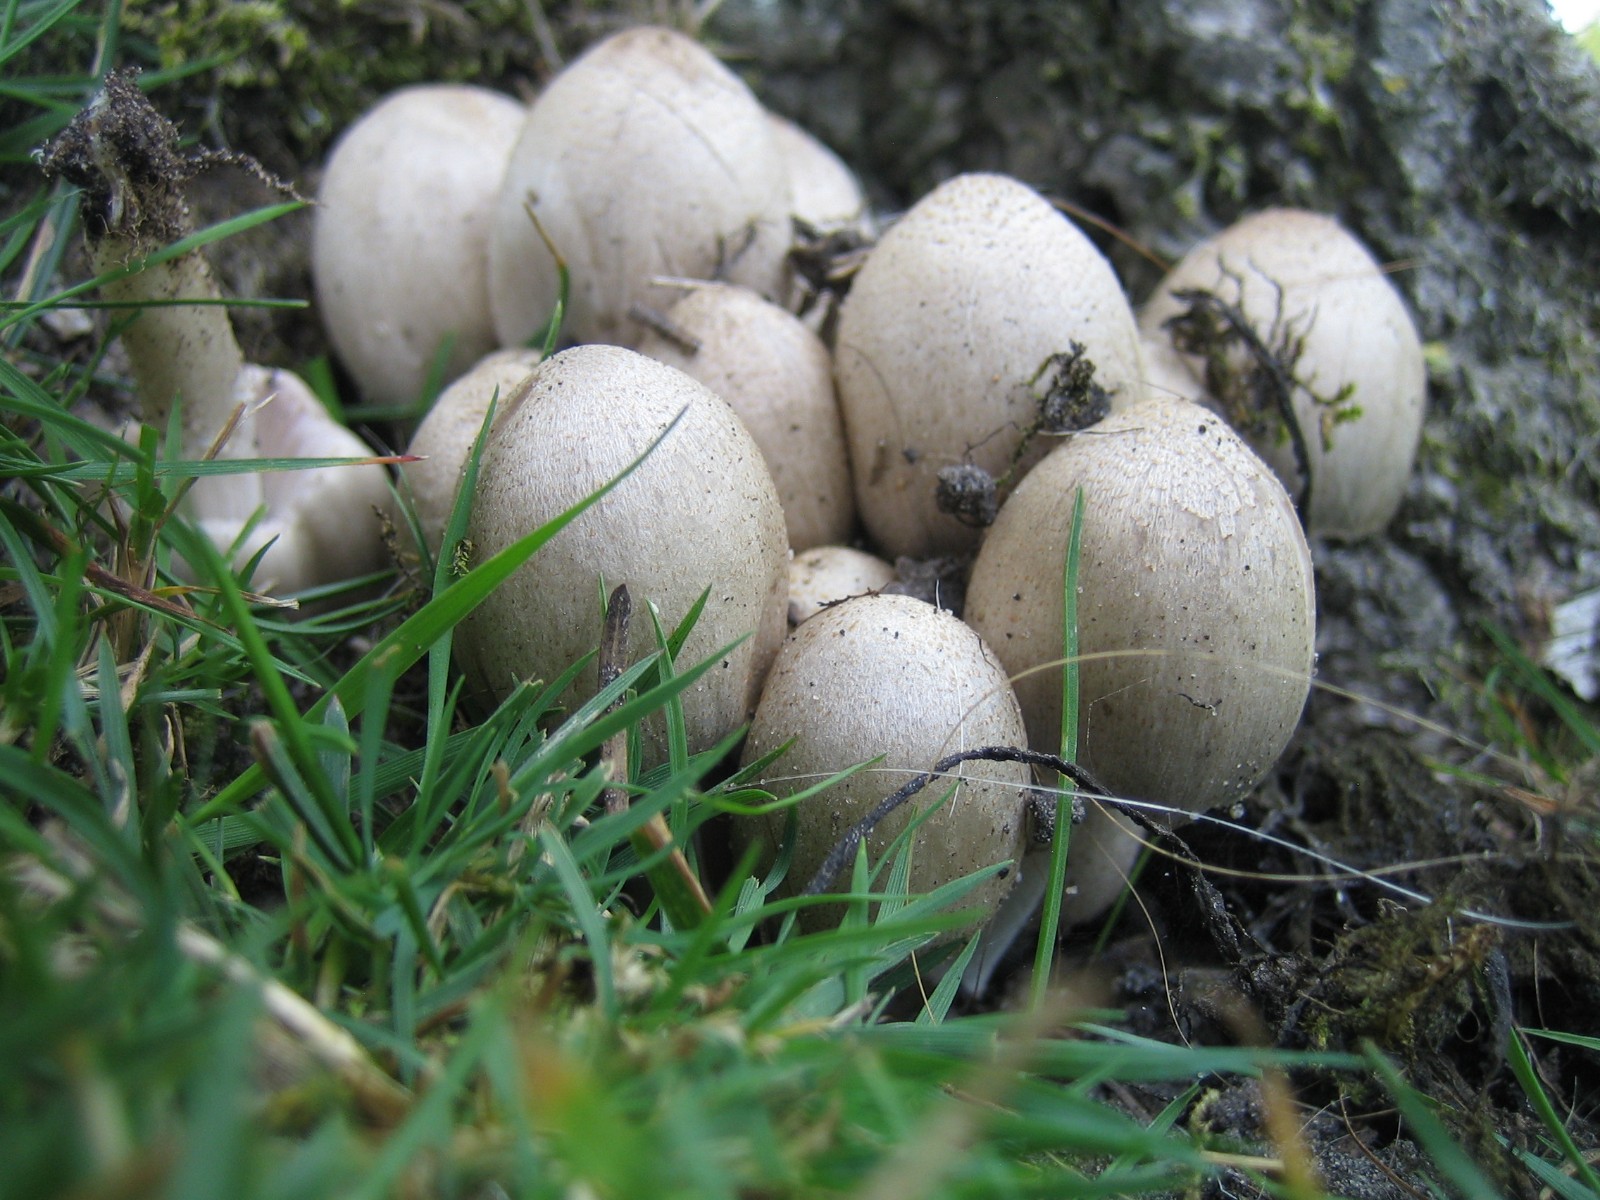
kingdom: Fungi
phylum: Basidiomycota
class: Agaricomycetes
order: Agaricales
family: Psathyrellaceae
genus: Coprinopsis
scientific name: Coprinopsis romagnesiana
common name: brunskællet blækhat
